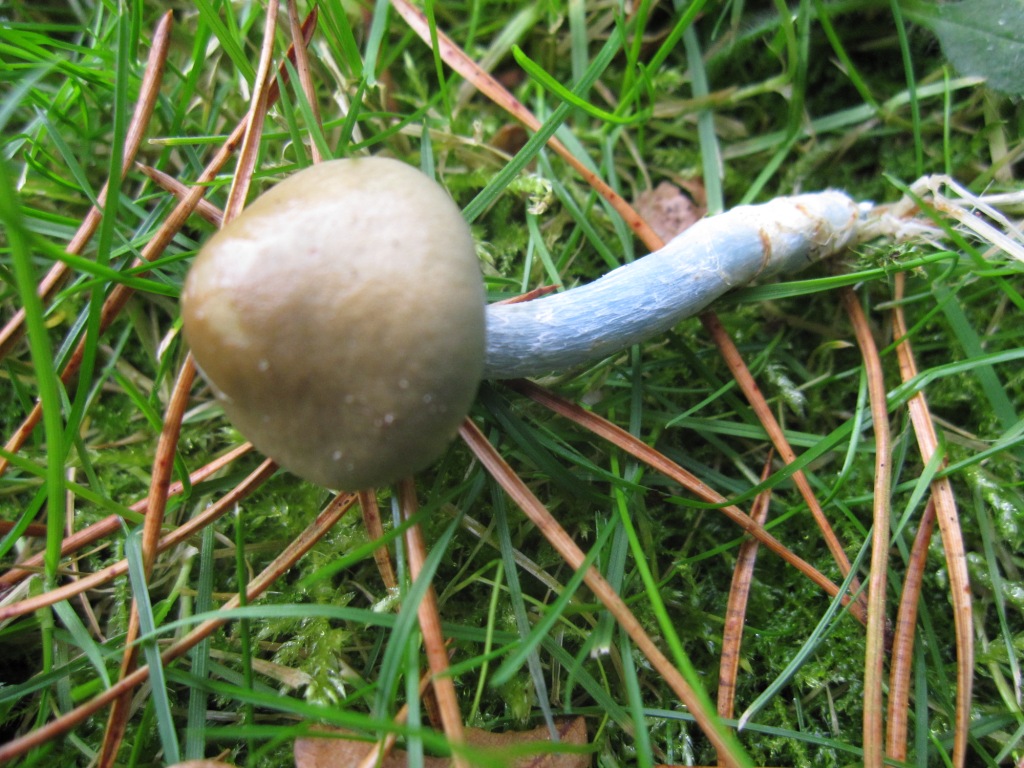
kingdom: Fungi
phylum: Basidiomycota
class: Agaricomycetes
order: Agaricales
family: Strophariaceae
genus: Stropharia
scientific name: Stropharia pseudocyanea
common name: blegblå bredblad
